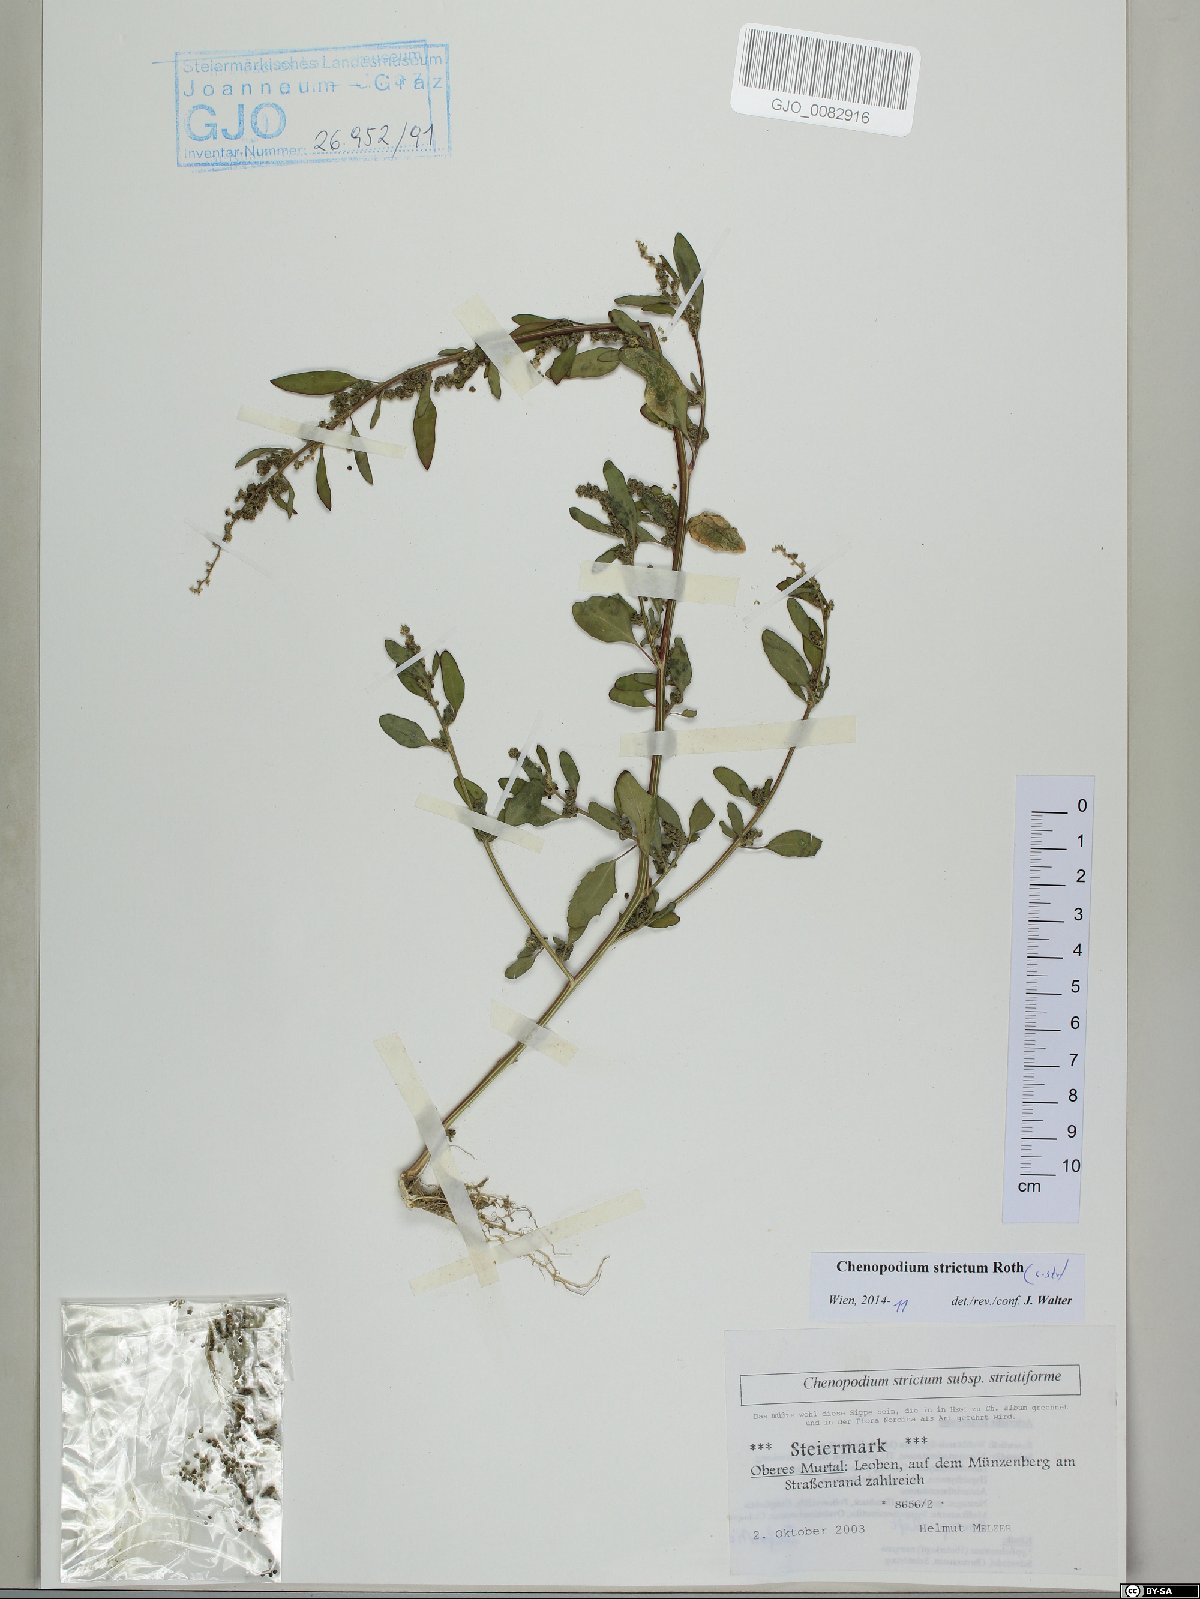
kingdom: Plantae
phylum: Tracheophyta
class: Magnoliopsida
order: Caryophyllales
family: Amaranthaceae
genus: Chenopodium
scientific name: Chenopodium album
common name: Fat-hen
